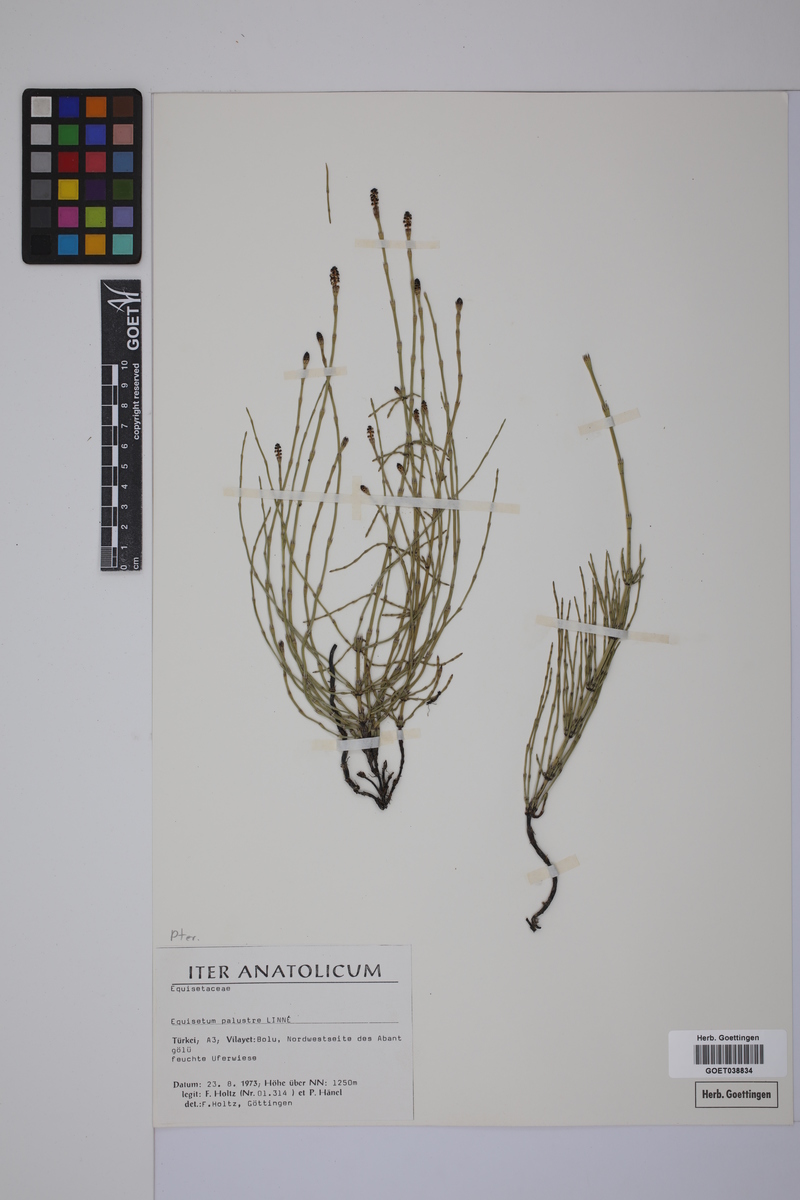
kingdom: Plantae
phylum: Tracheophyta
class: Polypodiopsida
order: Equisetales
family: Equisetaceae
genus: Equisetum
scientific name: Equisetum palustre
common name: Marsh horsetail
